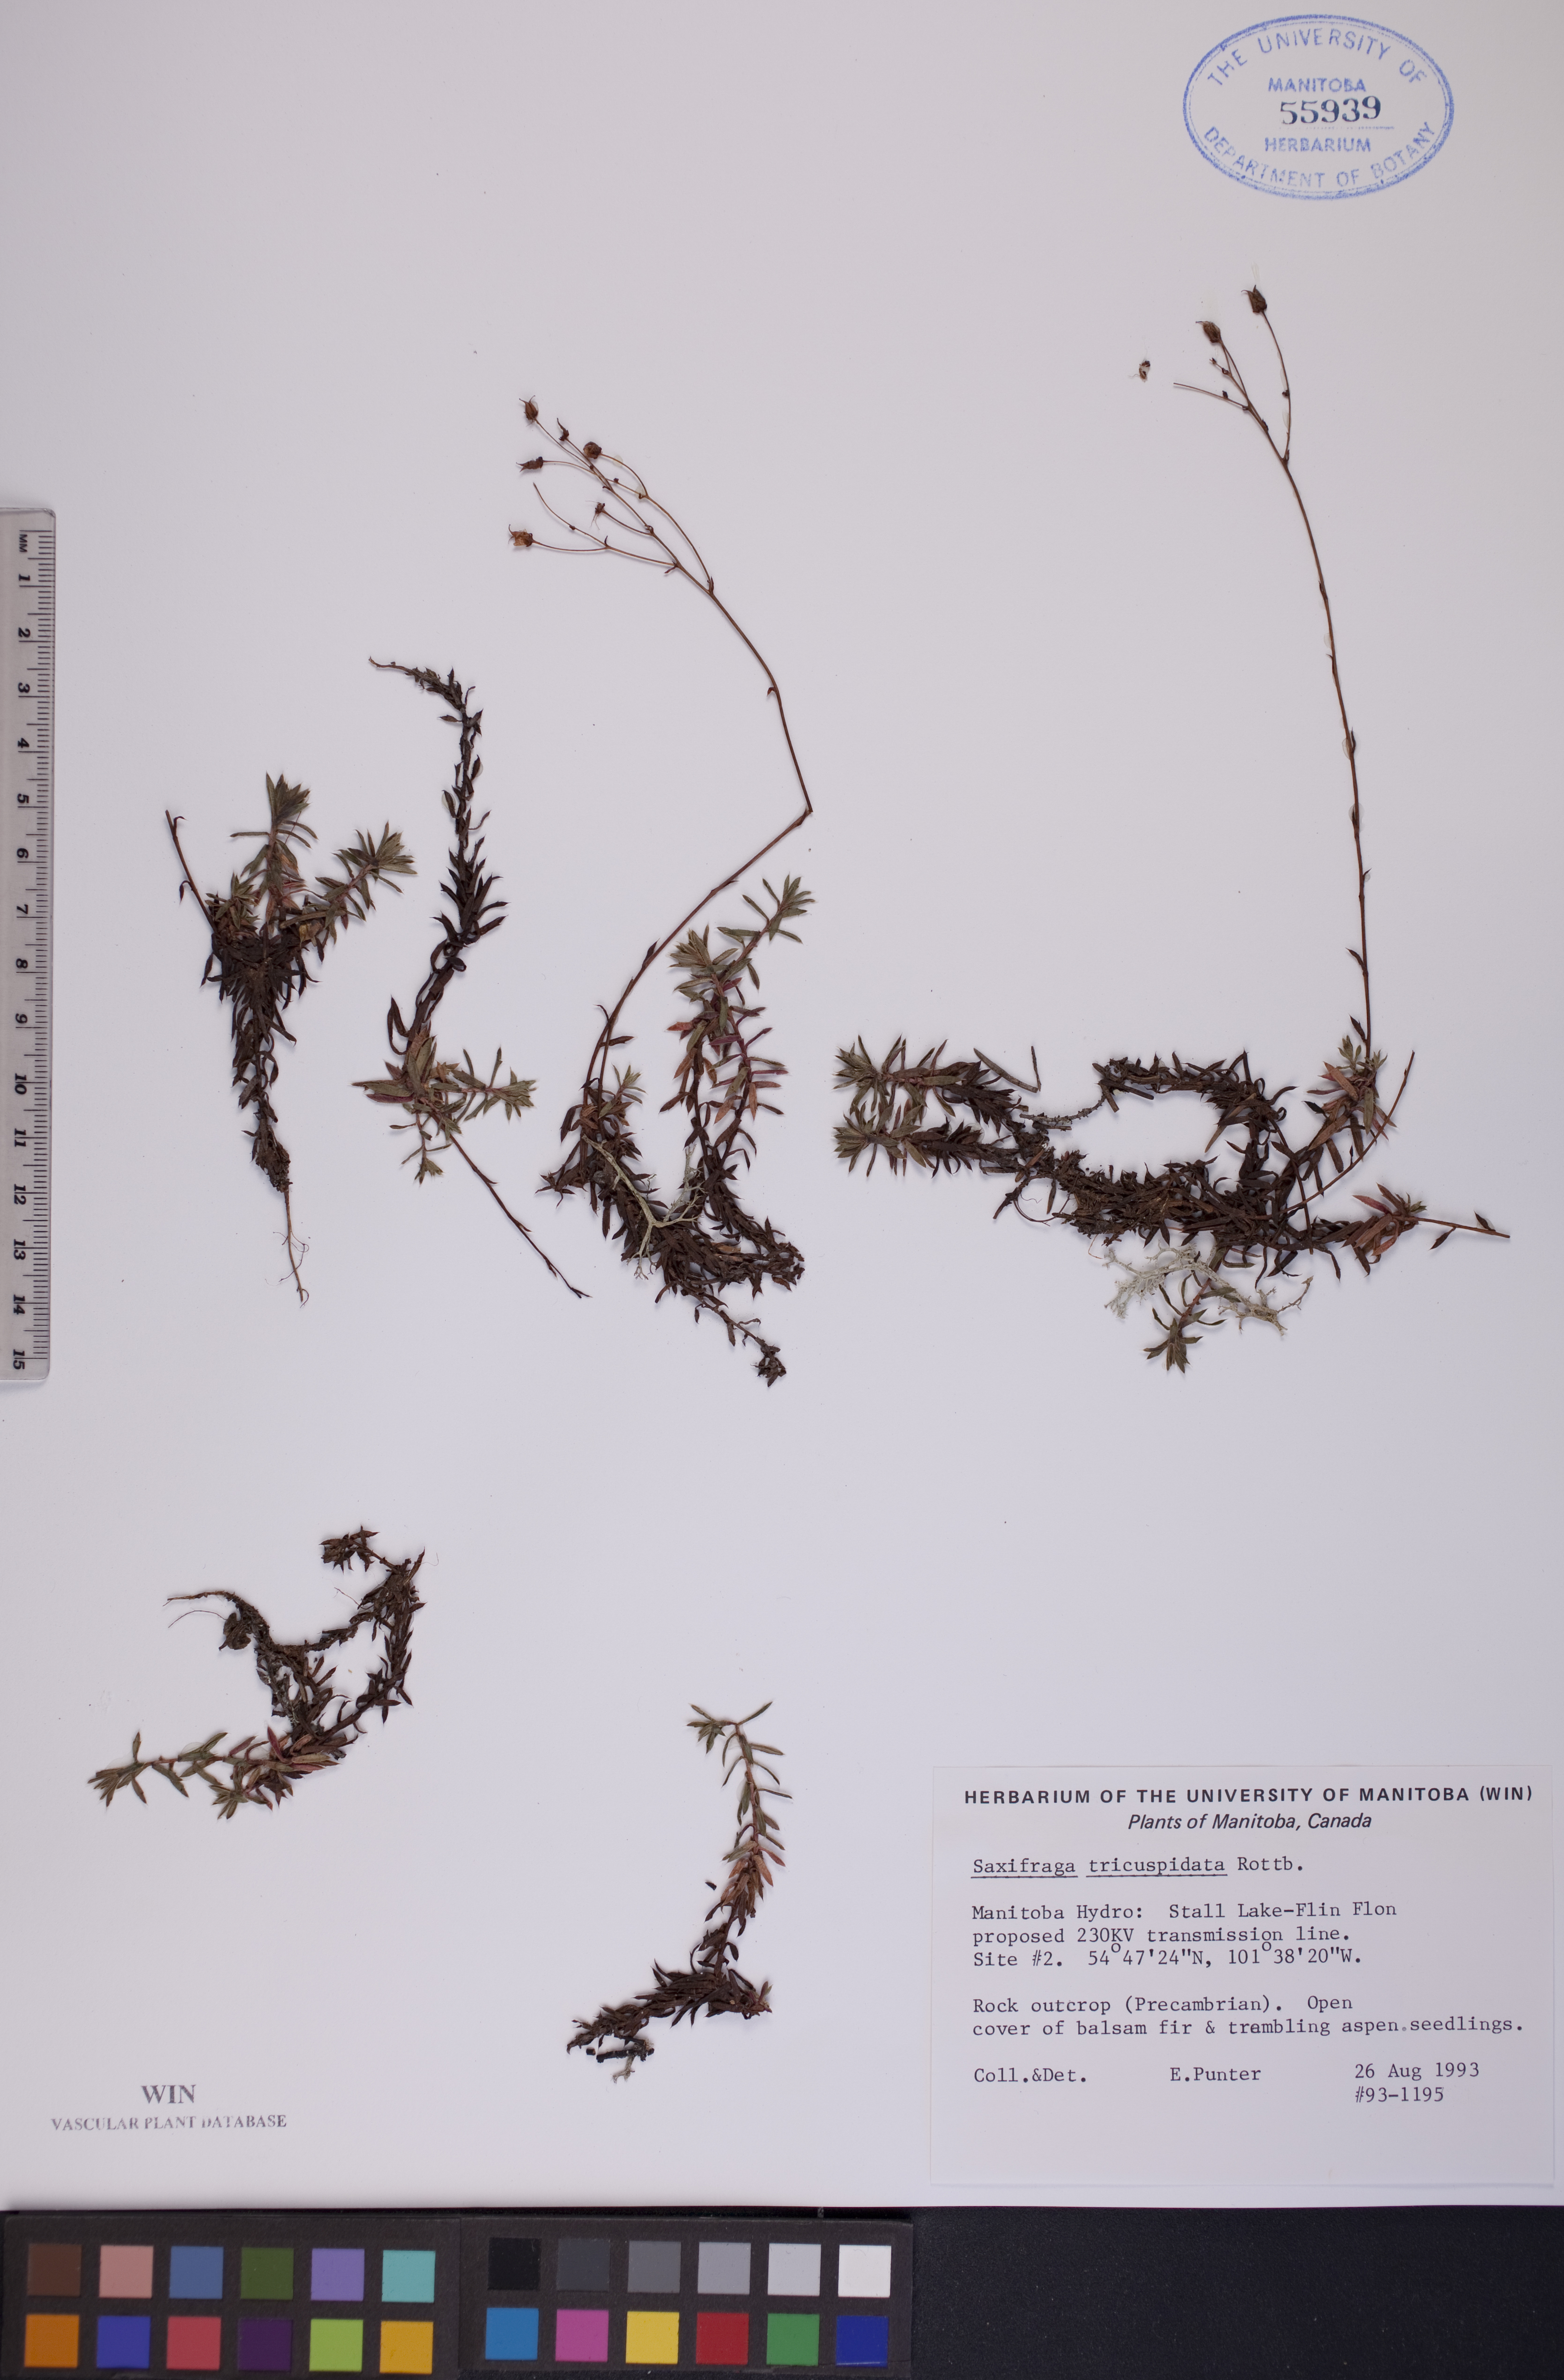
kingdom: Plantae
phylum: Tracheophyta
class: Magnoliopsida
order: Saxifragales
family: Saxifragaceae
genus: Saxifraga
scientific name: Saxifraga tricuspidata
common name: Prickly saxifrage
